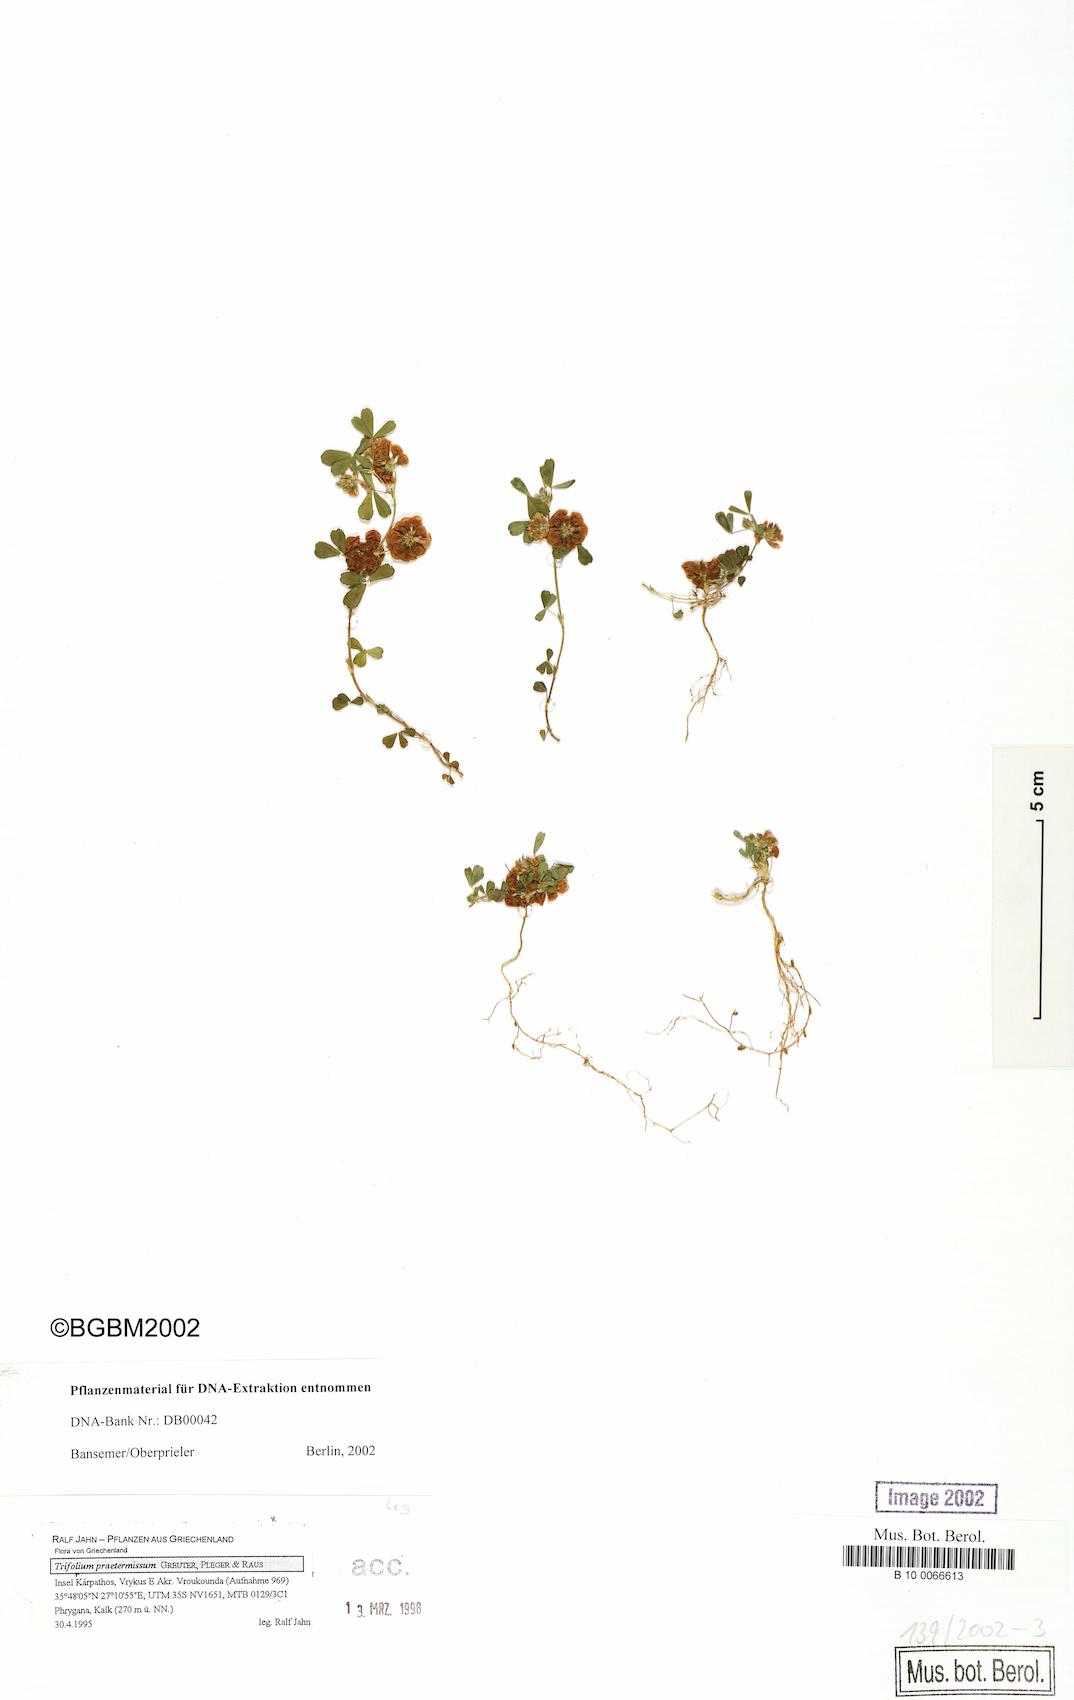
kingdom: Plantae
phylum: Tracheophyta
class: Magnoliopsida
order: Fabales
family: Fabaceae
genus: Trifolium
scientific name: Trifolium praetermissum
